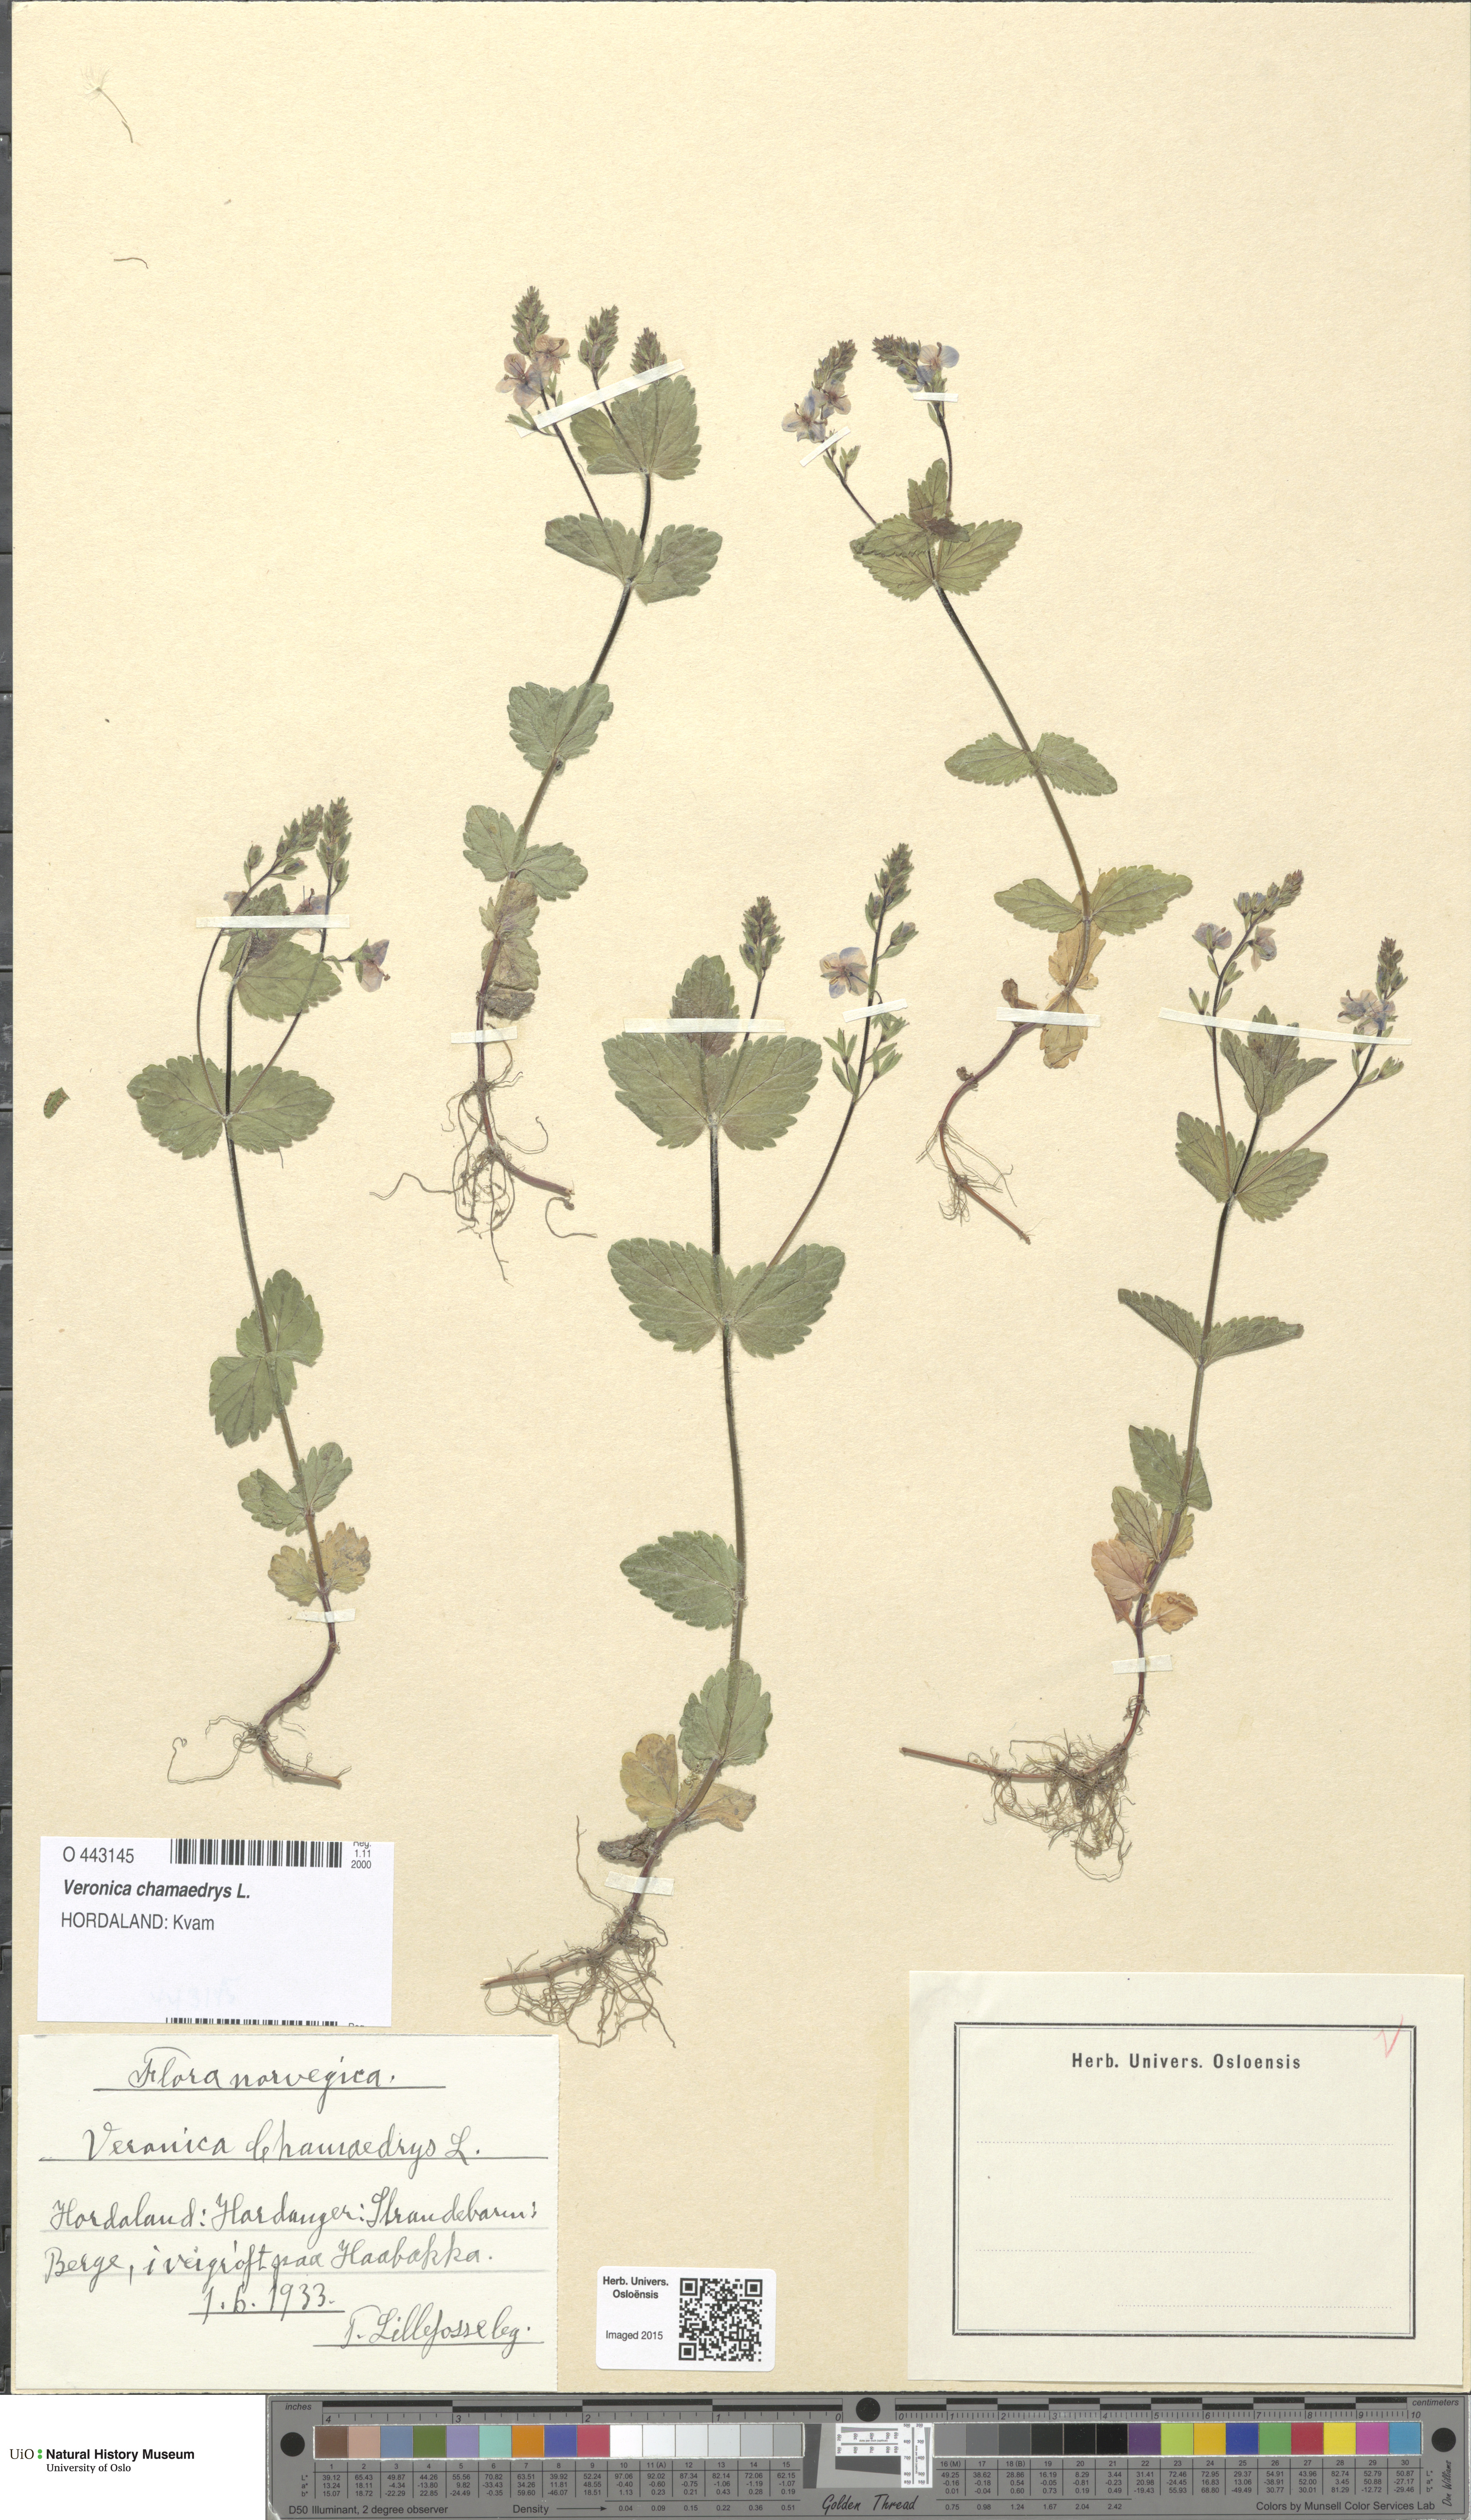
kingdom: Plantae
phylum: Tracheophyta
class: Magnoliopsida
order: Lamiales
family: Plantaginaceae
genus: Veronica
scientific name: Veronica chamaedrys
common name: Germander speedwell
